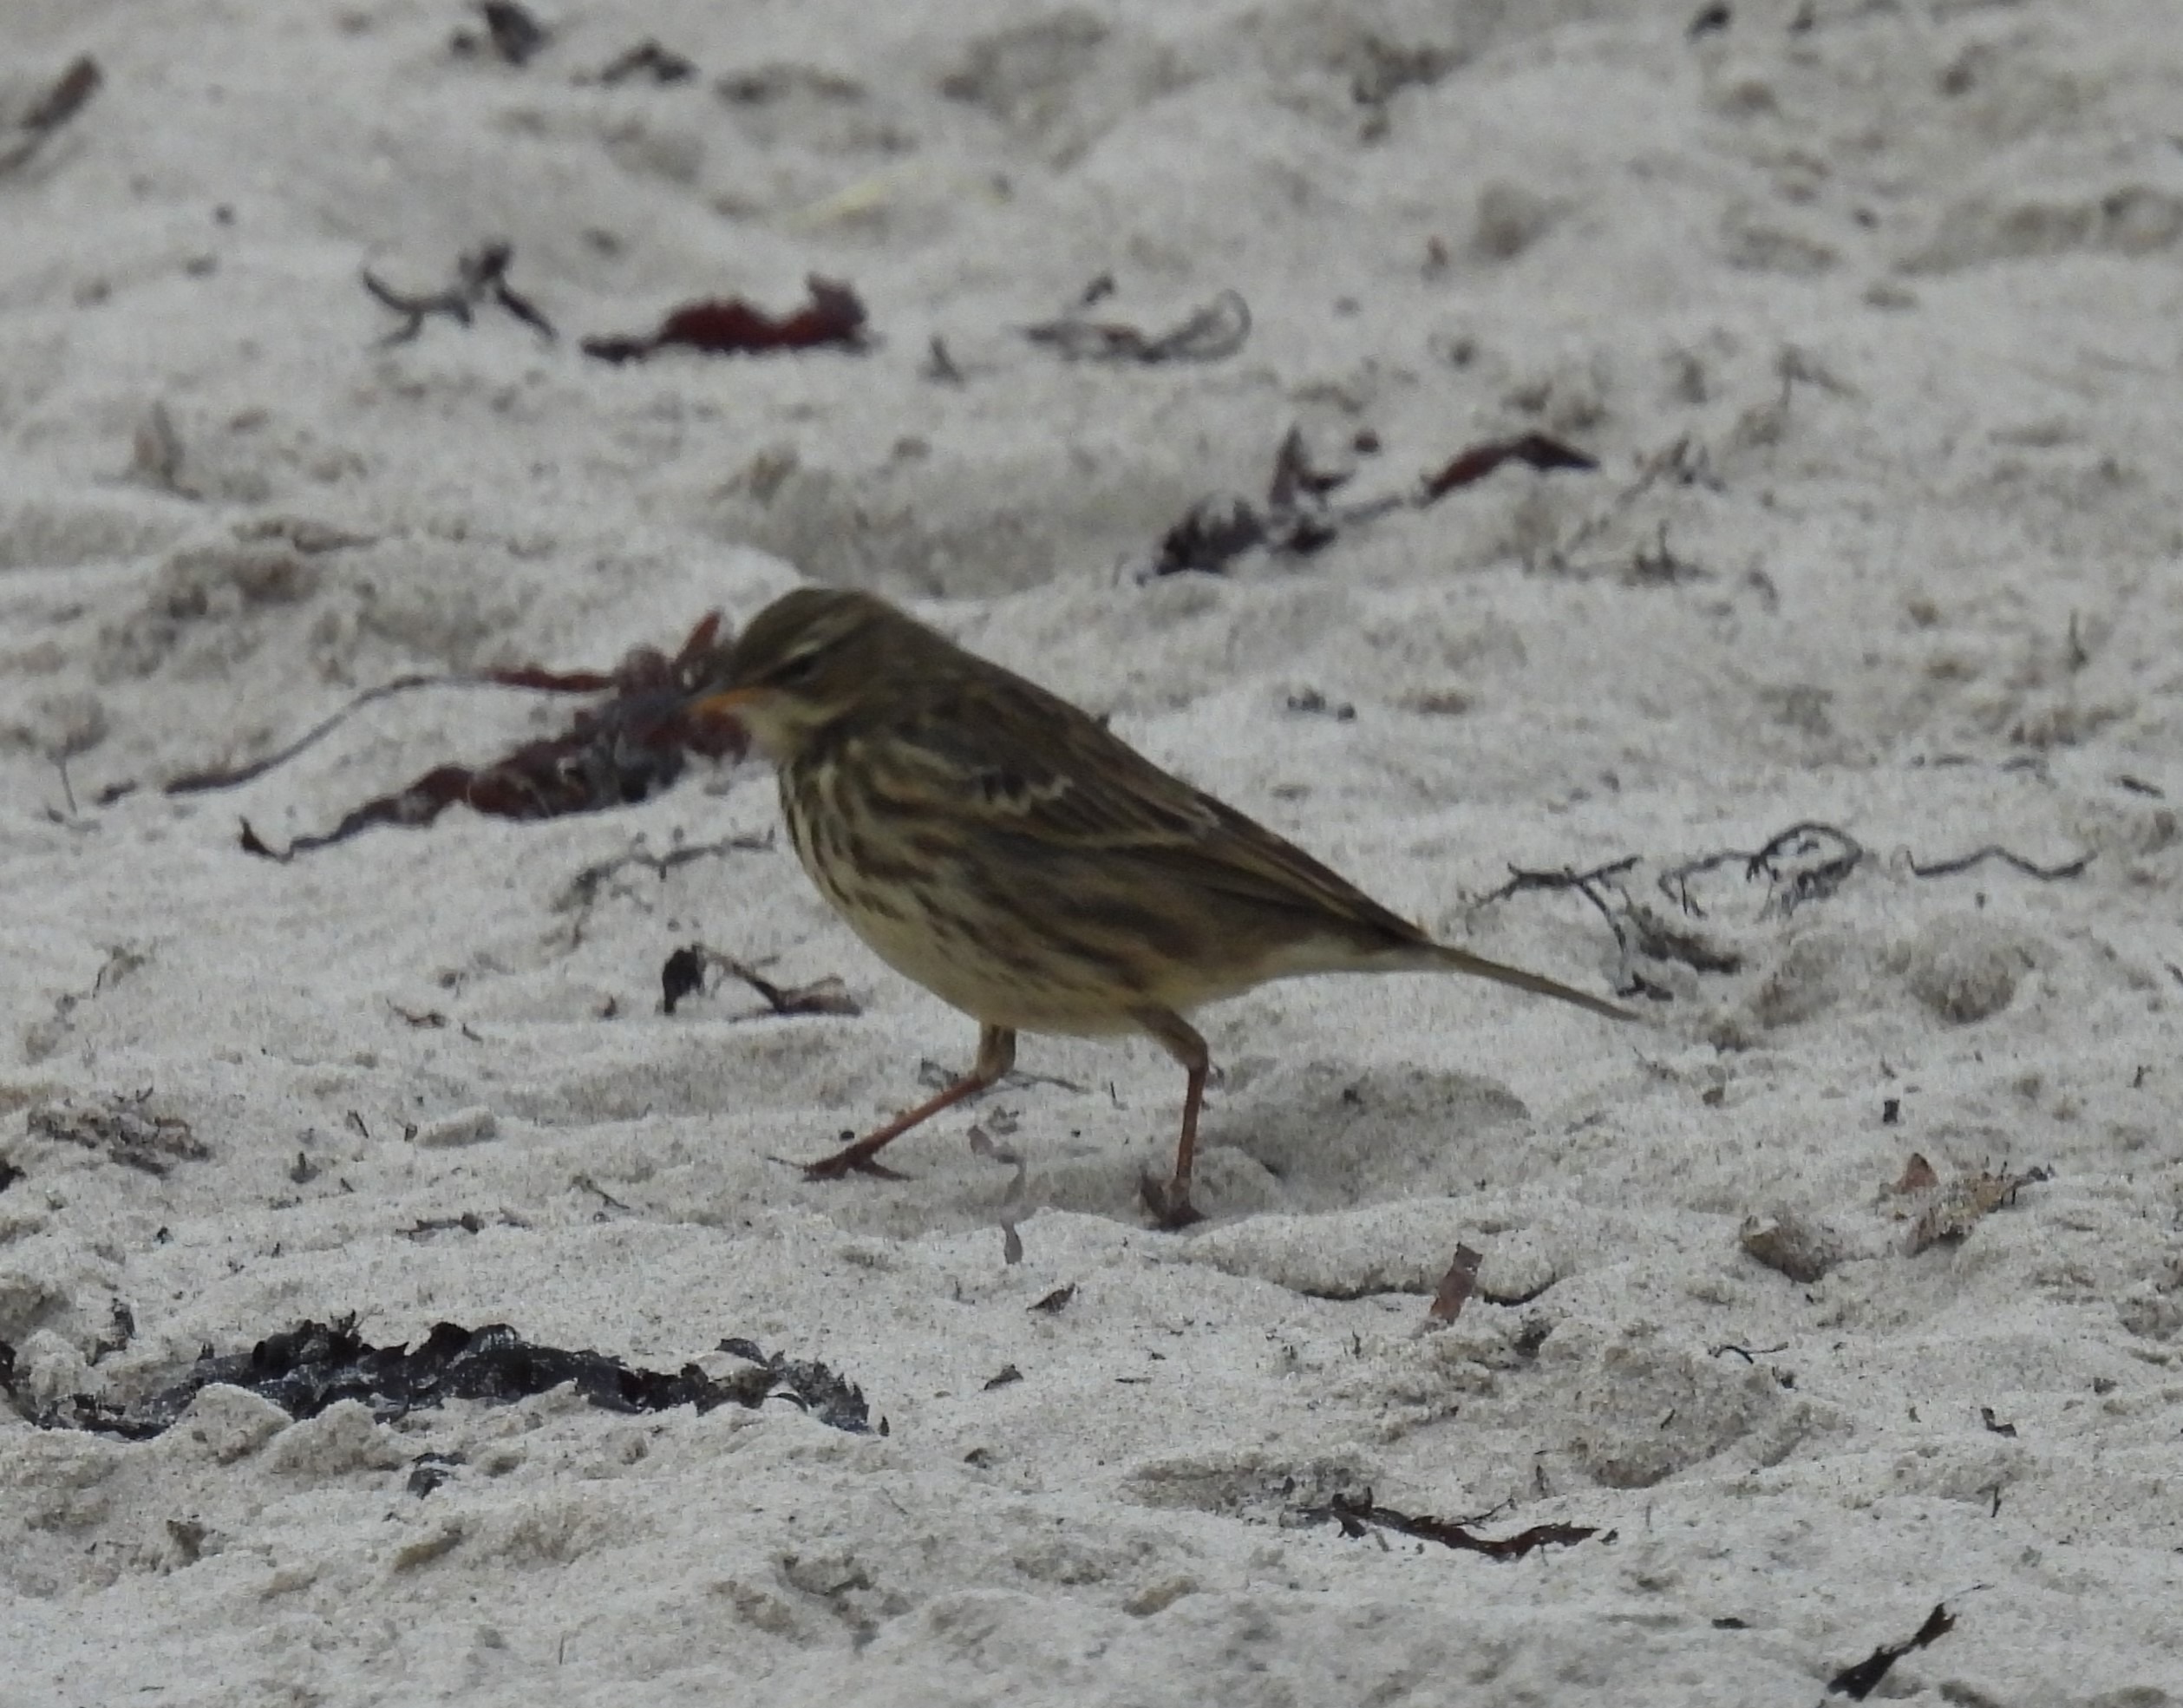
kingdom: Animalia
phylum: Chordata
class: Aves
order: Passeriformes
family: Motacillidae
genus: Anthus
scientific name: Anthus petrosus
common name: Skærpiber
